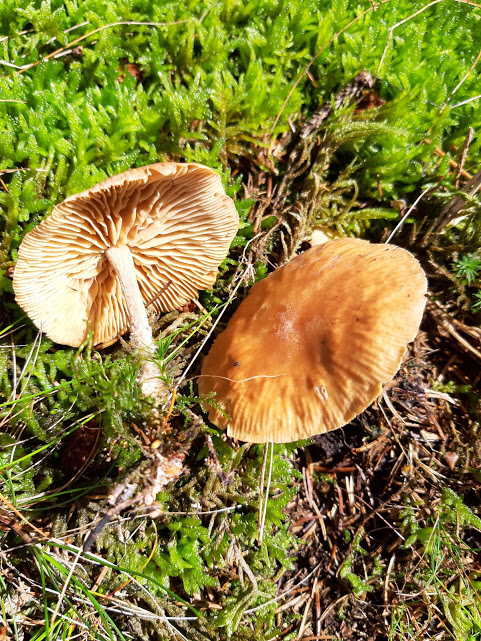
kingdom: Fungi
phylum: Basidiomycota
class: Agaricomycetes
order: Agaricales
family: Omphalotaceae
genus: Collybiopsis
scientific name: Collybiopsis peronata
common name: bestøvlet fladhat
